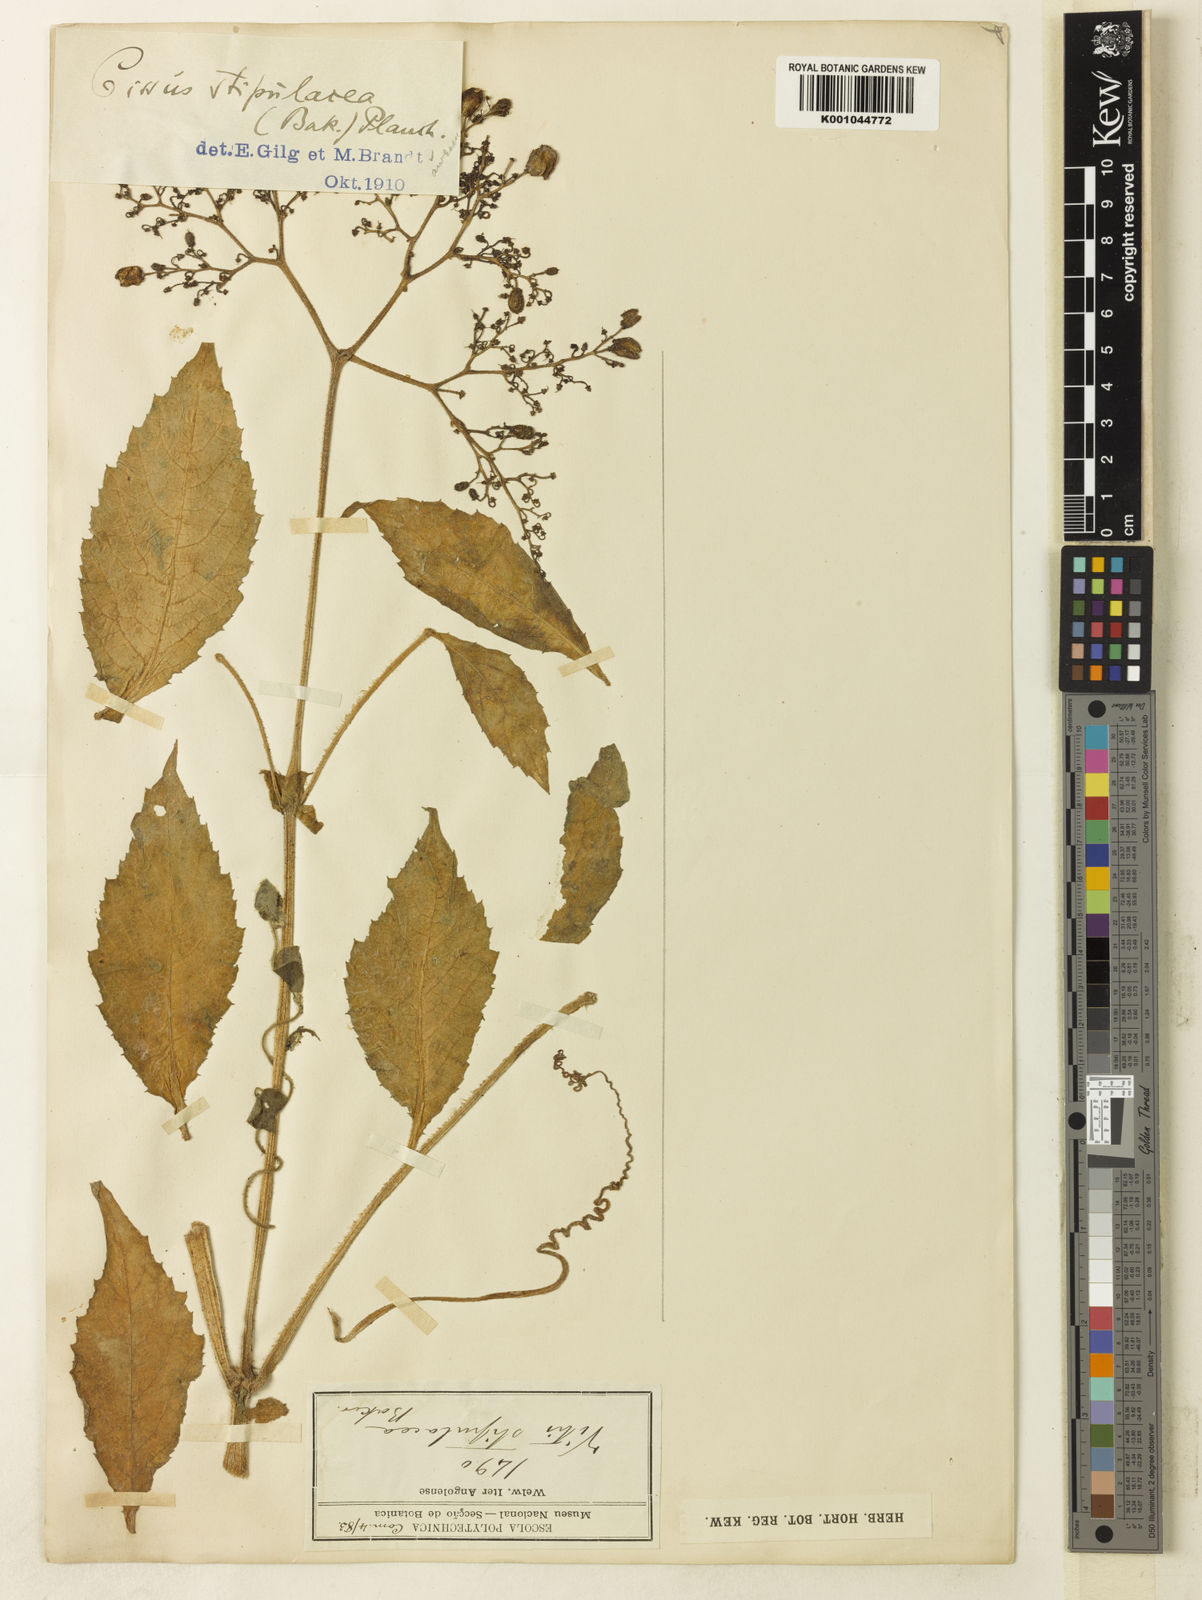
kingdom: Plantae
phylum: Tracheophyta
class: Magnoliopsida
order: Vitales
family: Vitaceae
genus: Cyphostemma
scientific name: Cyphostemma stipulaceum
